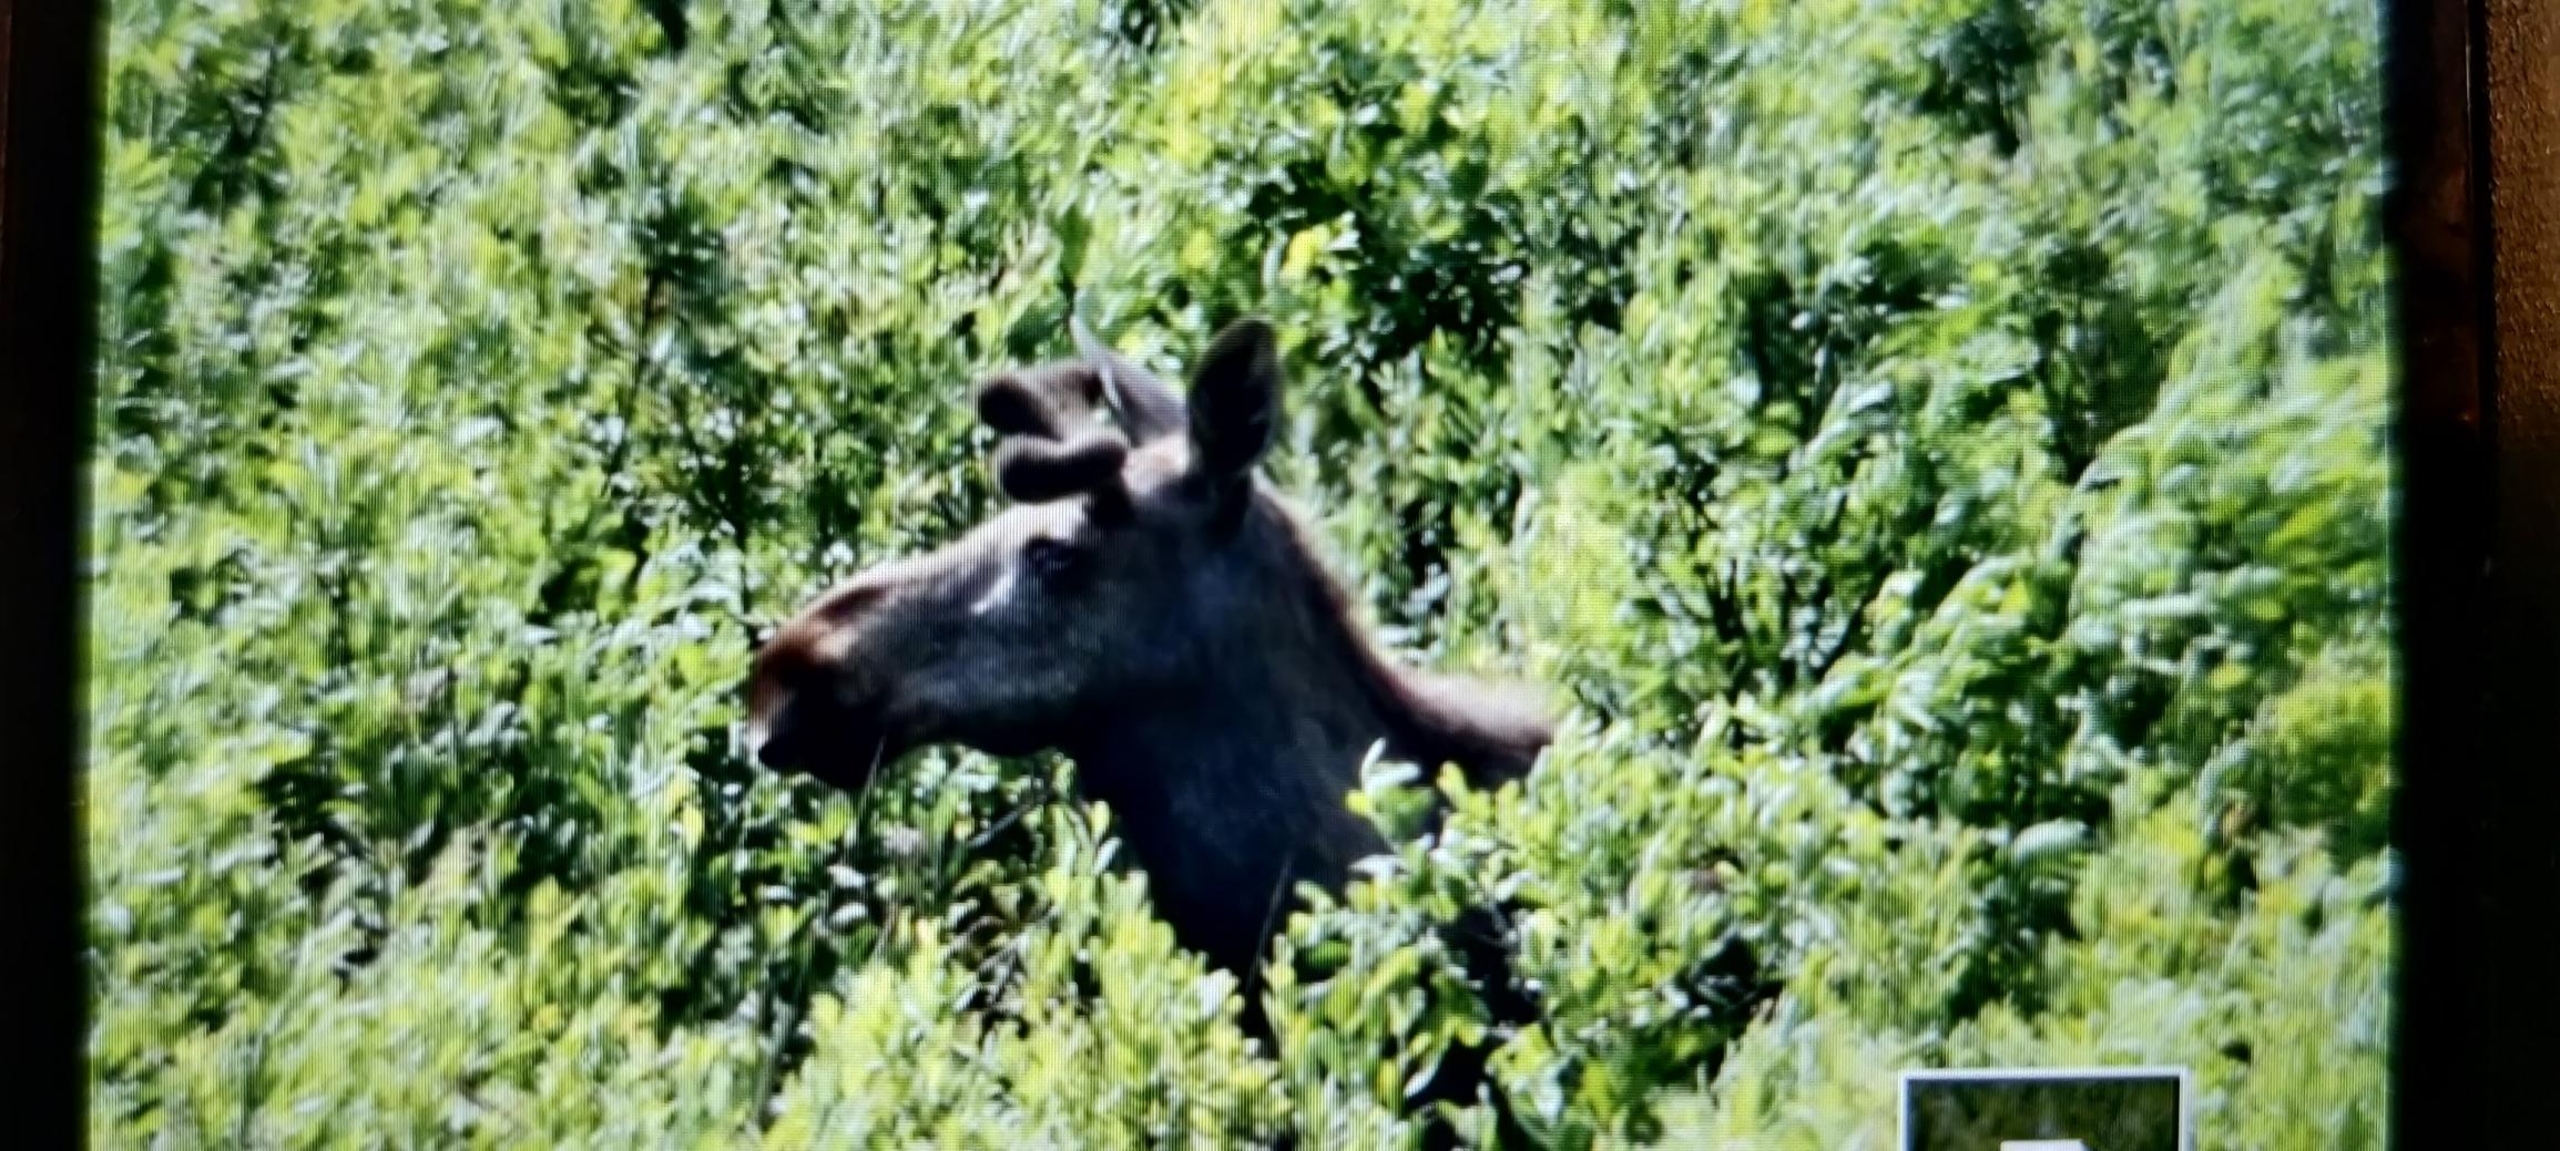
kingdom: Animalia
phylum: Chordata
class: Mammalia
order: Artiodactyla
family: Cervidae
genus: Alces
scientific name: Alces alces
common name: Elg
